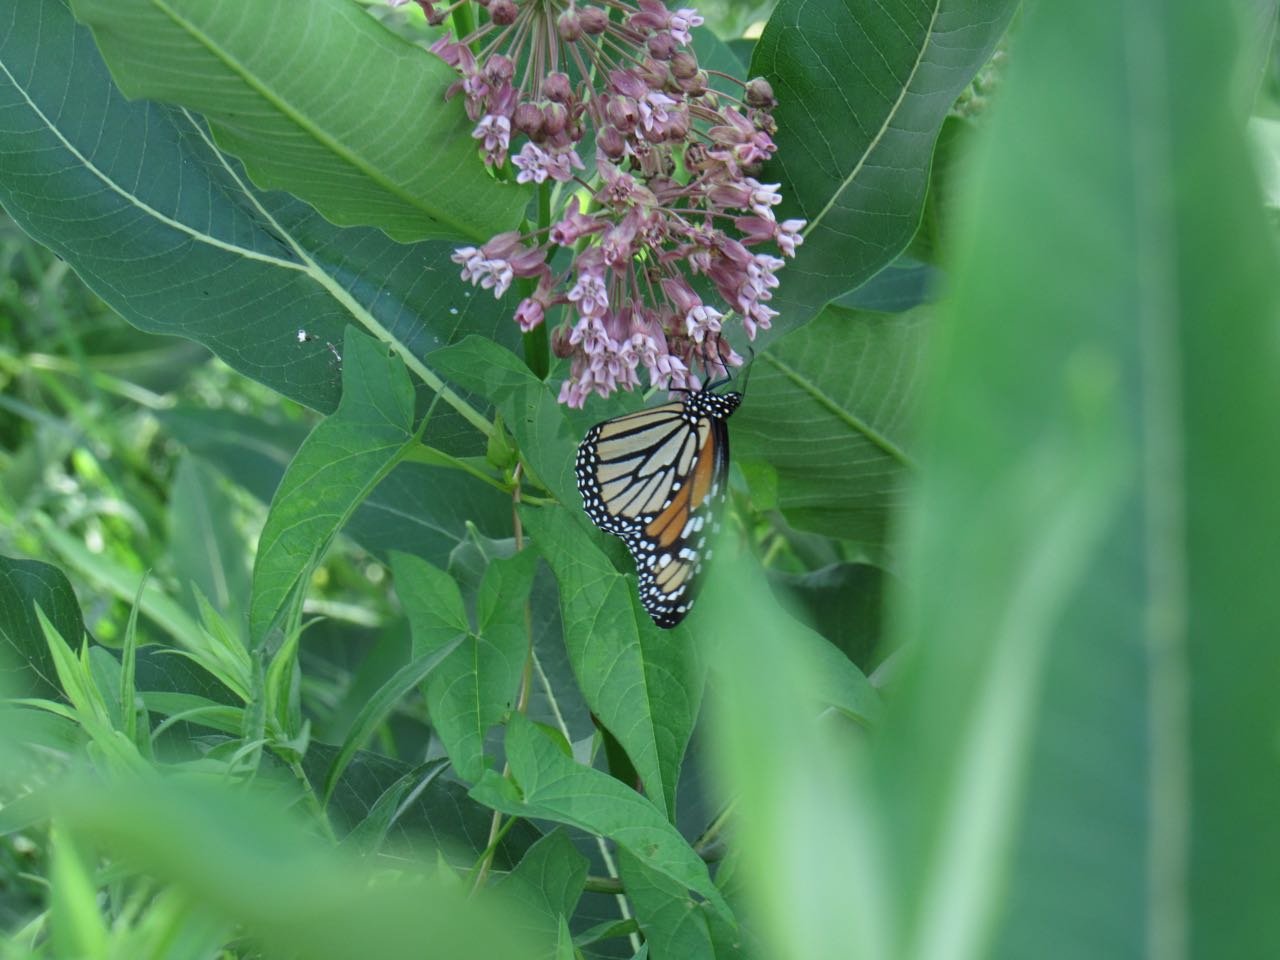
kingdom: Animalia
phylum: Arthropoda
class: Insecta
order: Lepidoptera
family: Nymphalidae
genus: Danaus
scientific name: Danaus plexippus
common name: Monarch
